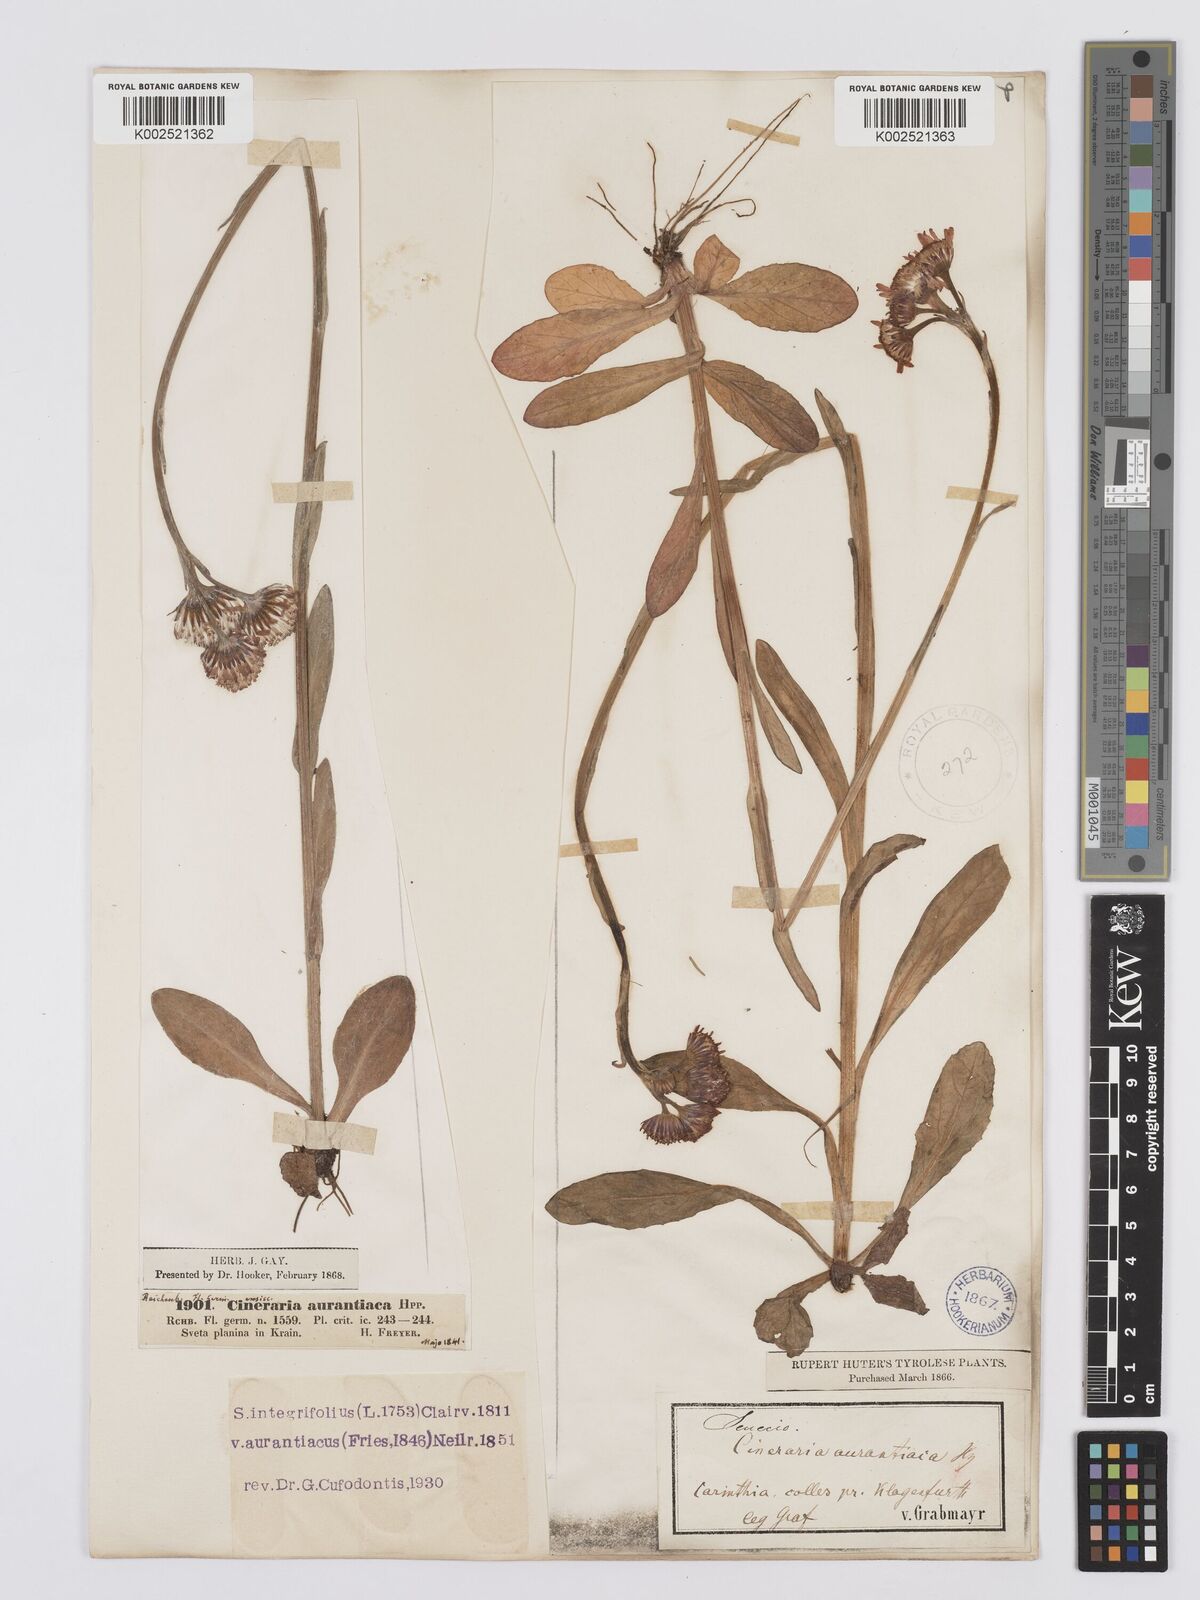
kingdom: Plantae
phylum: Tracheophyta
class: Magnoliopsida
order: Asterales
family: Asteraceae
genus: Tephroseris
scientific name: Tephroseris aurantiaca
